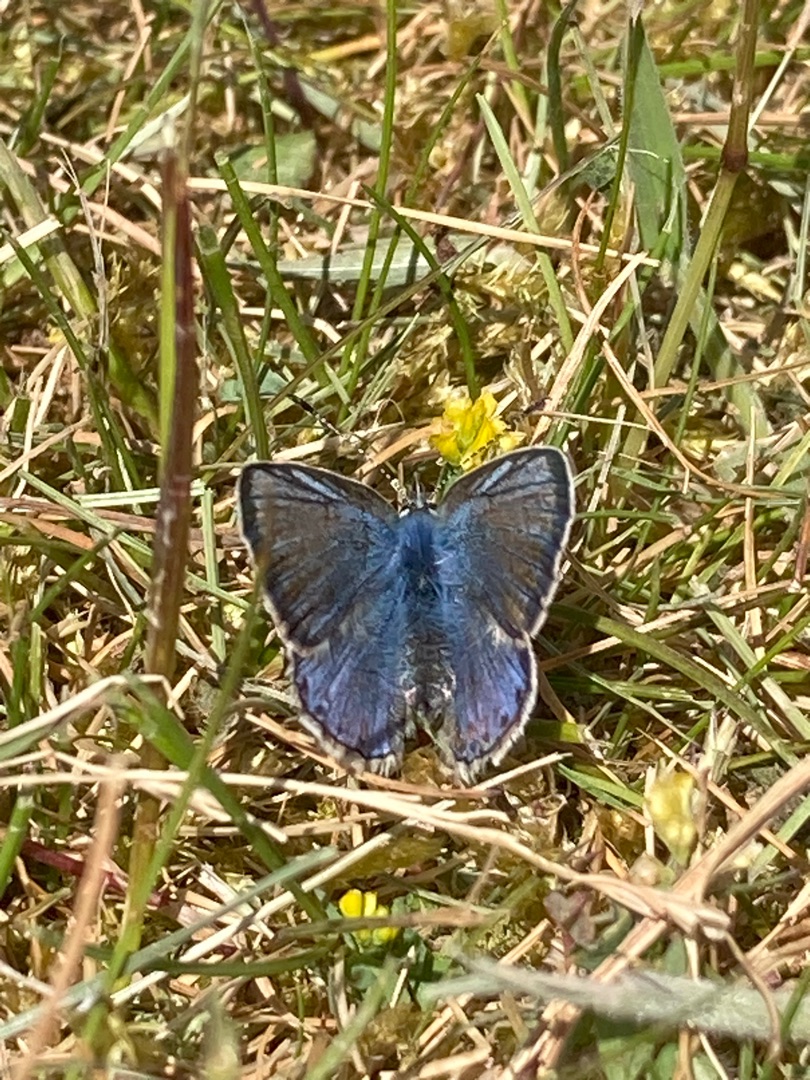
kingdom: Animalia
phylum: Arthropoda
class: Insecta
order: Lepidoptera
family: Lycaenidae
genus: Polyommatus
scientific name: Polyommatus icarus
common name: Almindelig blåfugl
